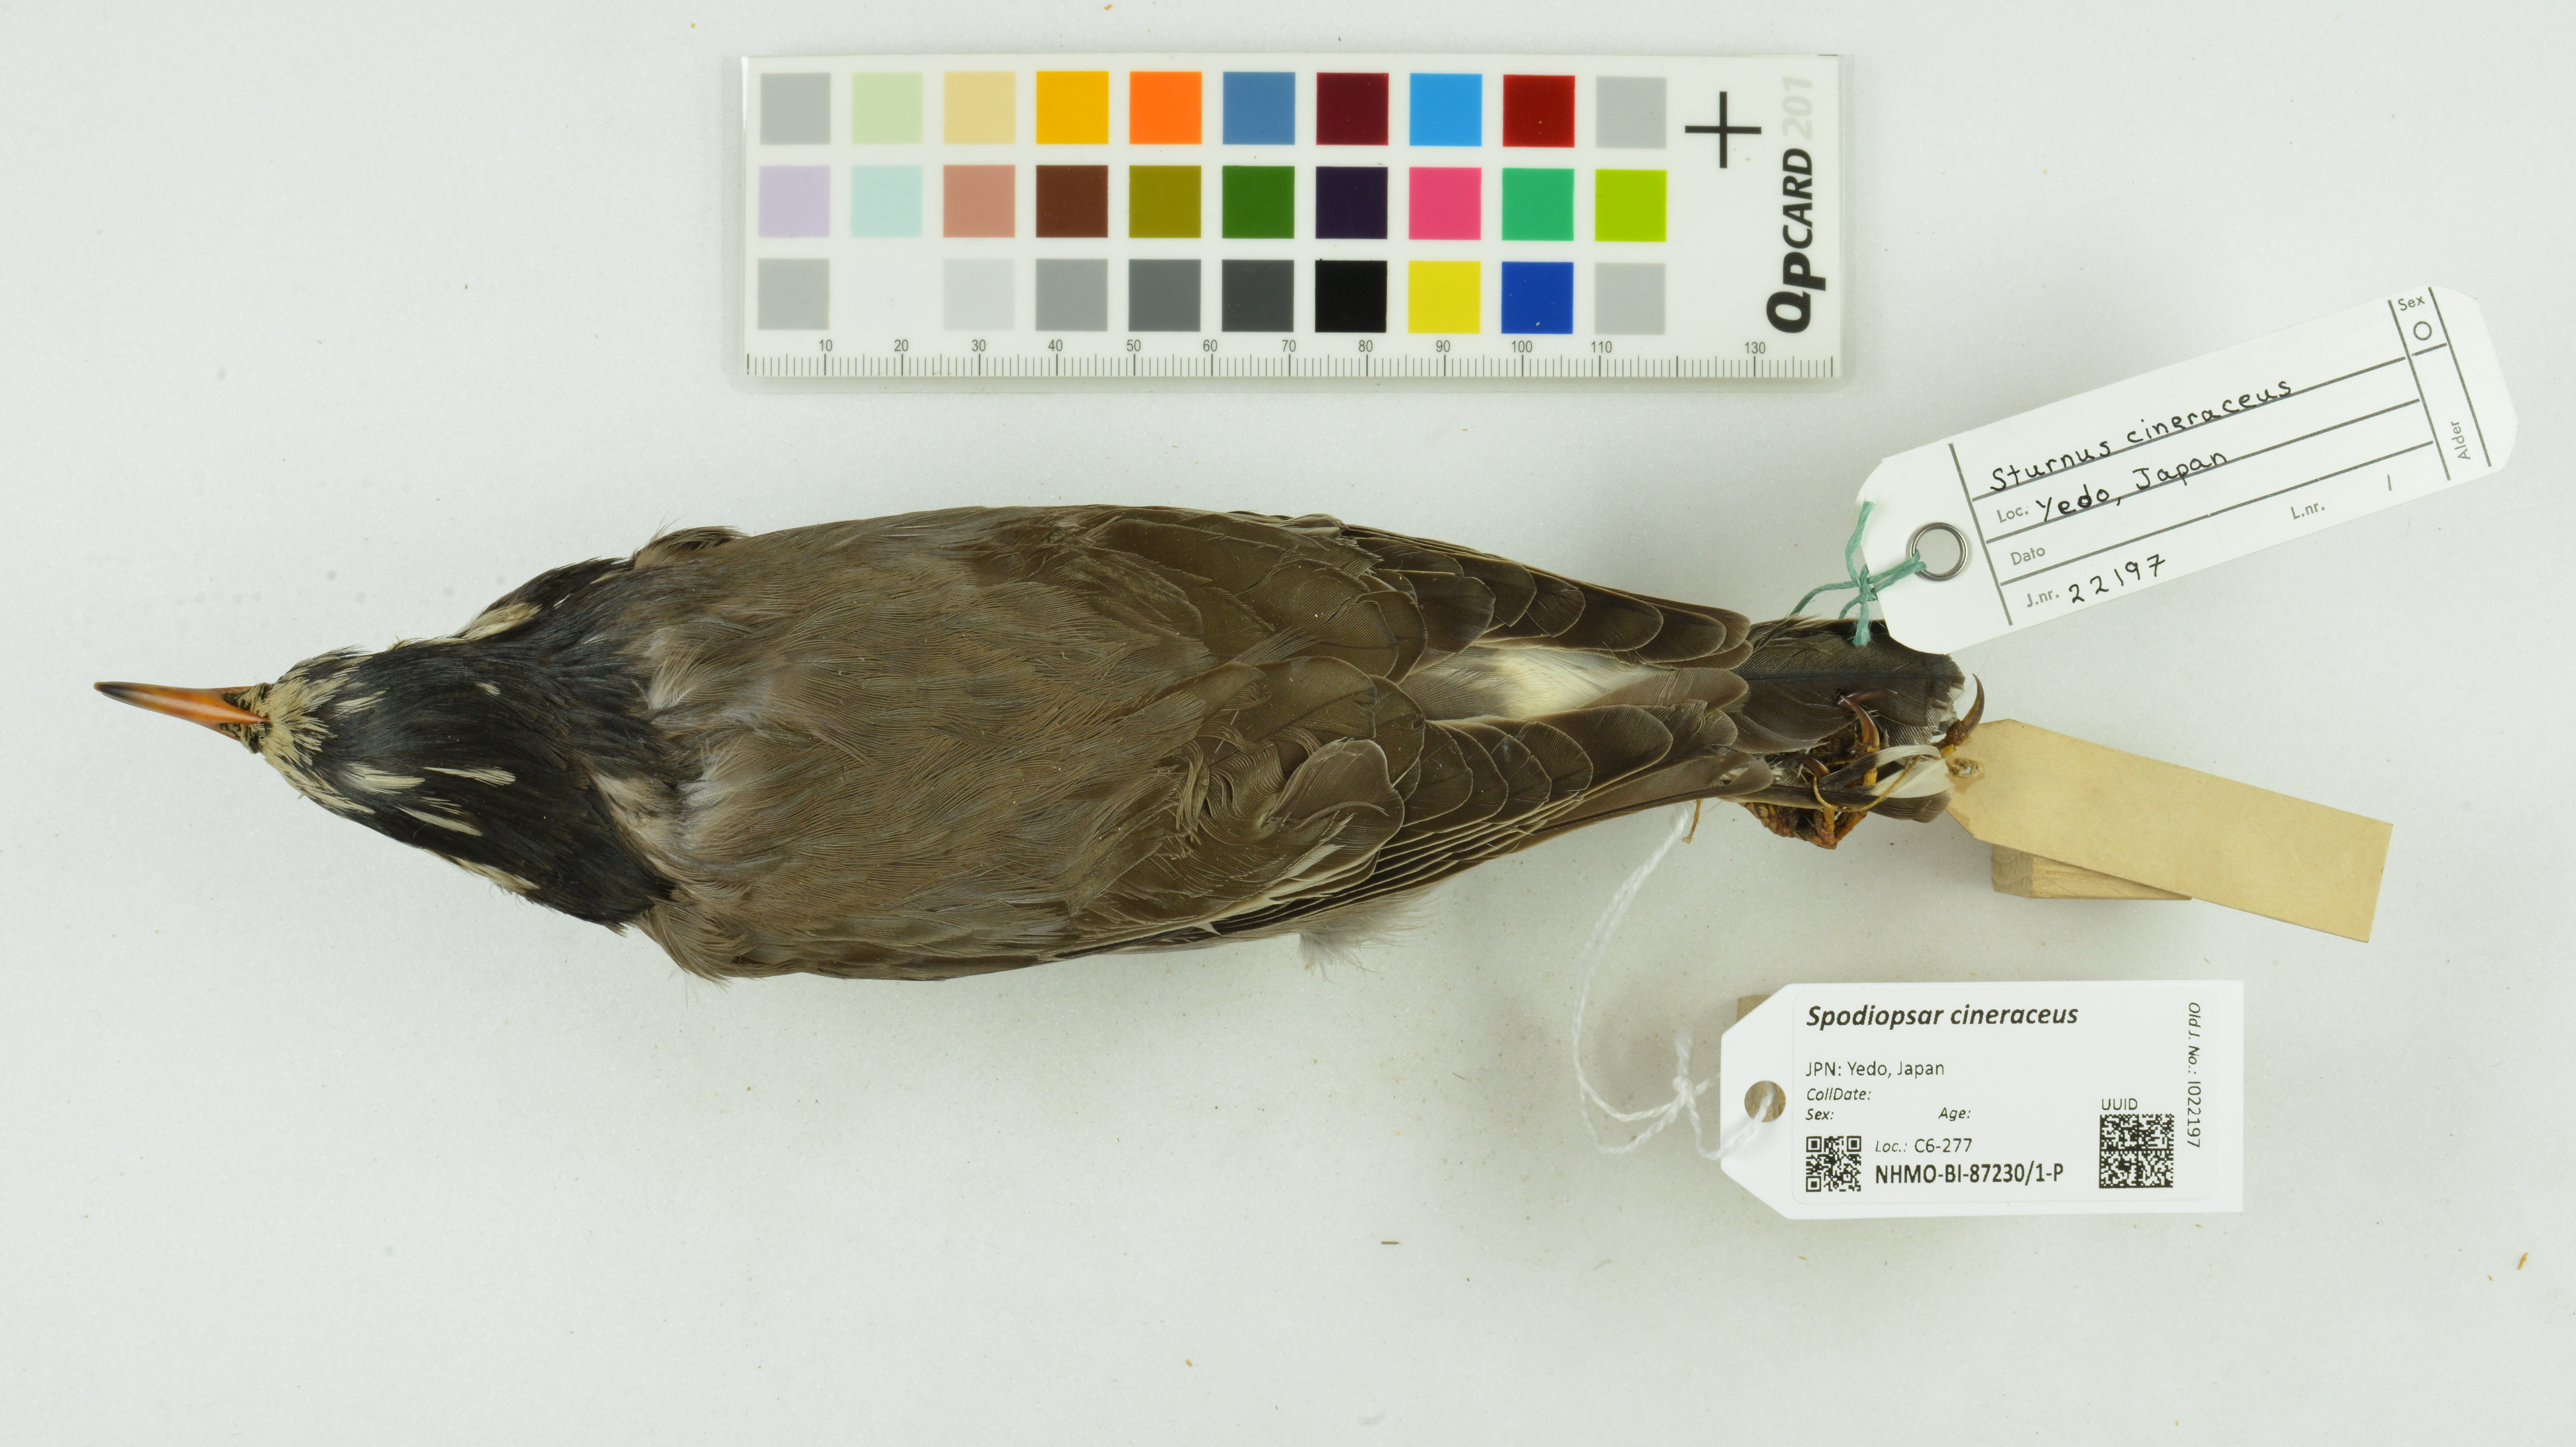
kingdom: Animalia
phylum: Chordata
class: Aves
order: Passeriformes
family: Sturnidae
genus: Spodiopsar
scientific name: Spodiopsar cineraceus
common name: White-cheeked starling
